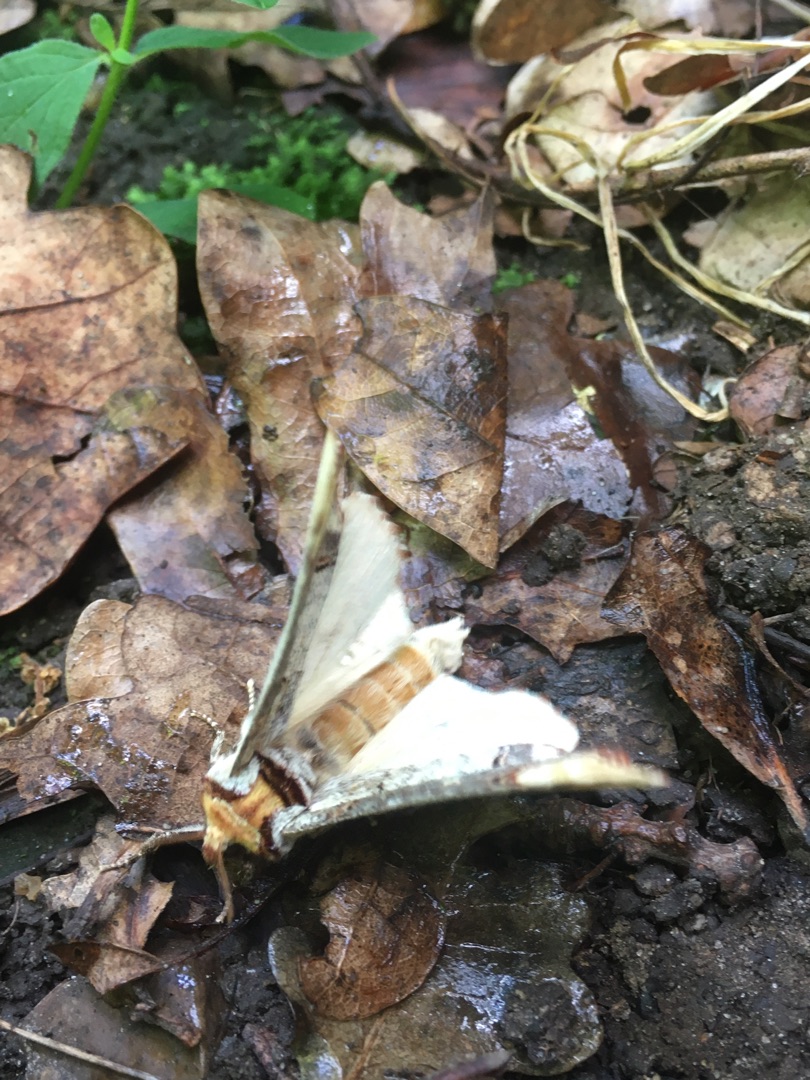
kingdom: Animalia
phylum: Arthropoda
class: Insecta
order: Lepidoptera
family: Notodontidae
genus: Phalera
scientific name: Phalera bucephala
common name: Måneplet
